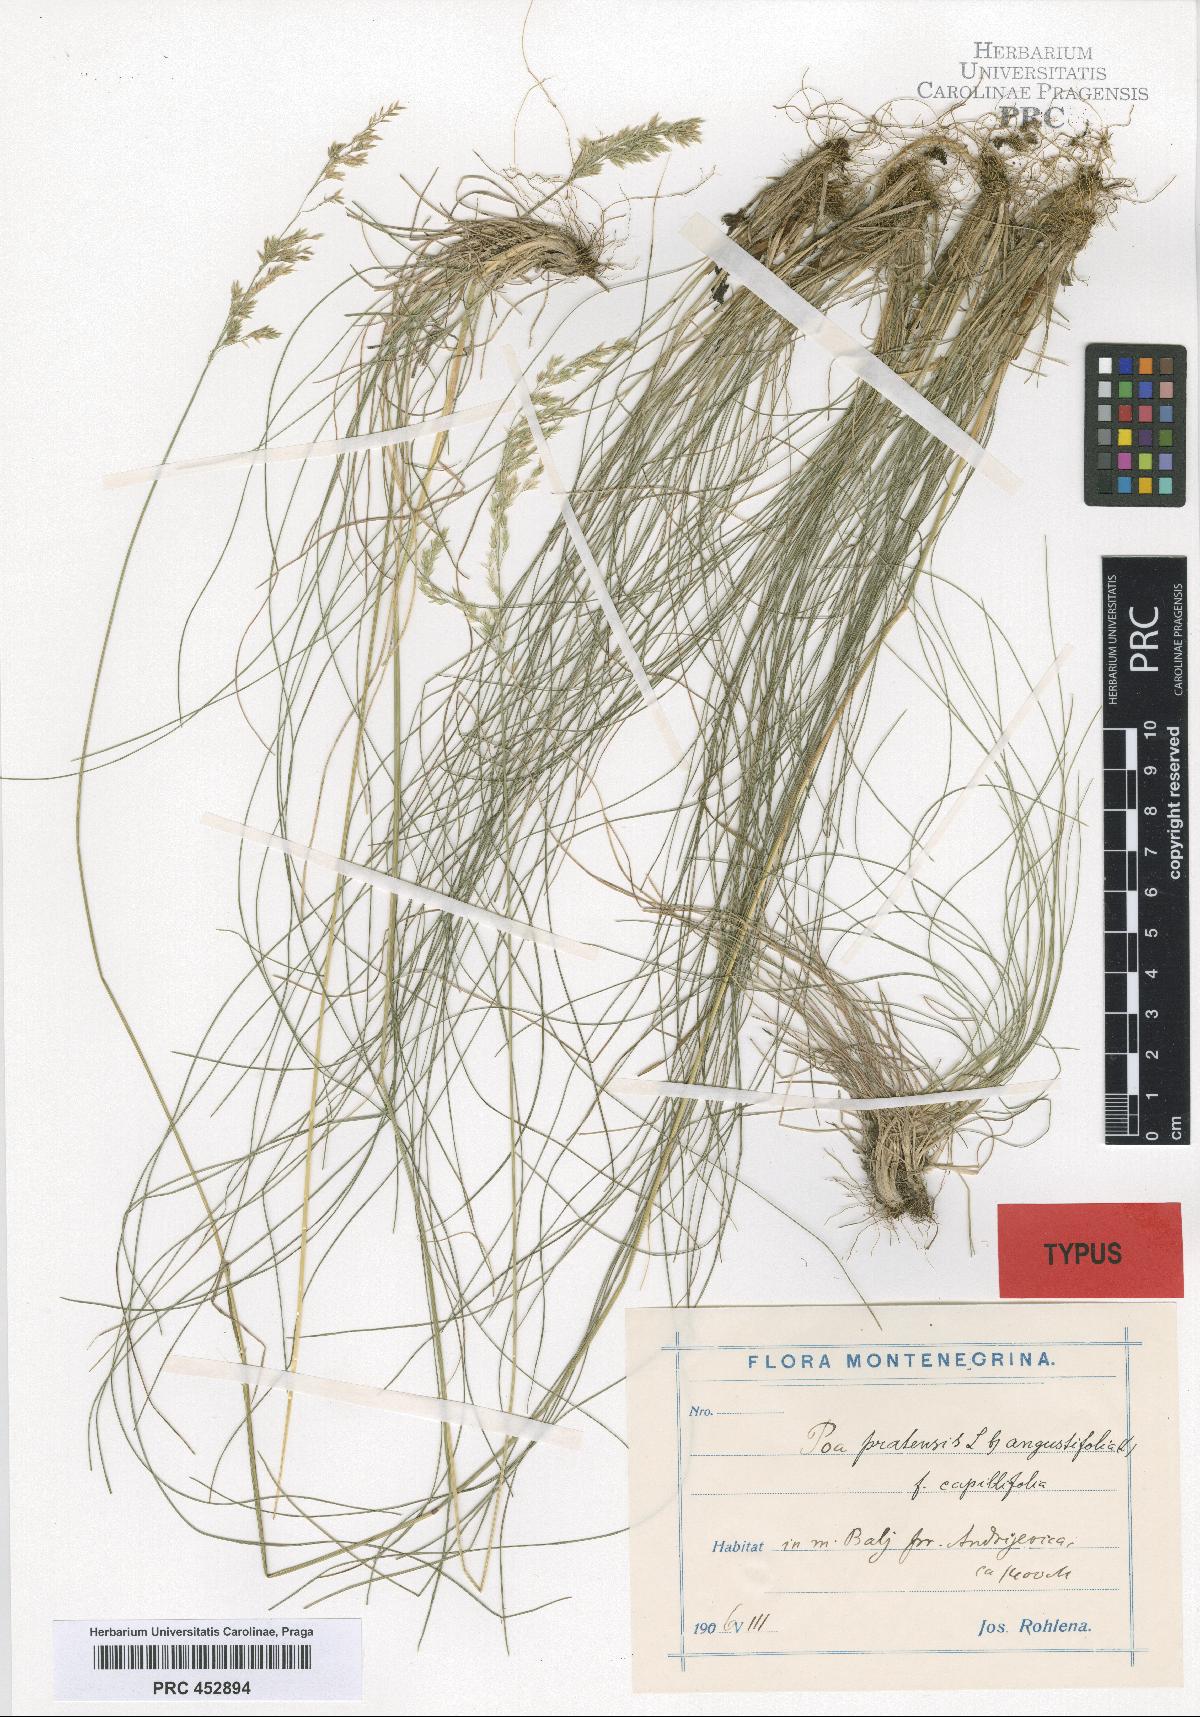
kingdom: Plantae
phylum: Tracheophyta
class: Liliopsida
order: Poales
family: Poaceae
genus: Poa
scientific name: Poa alpina
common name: Alpine bluegrass
